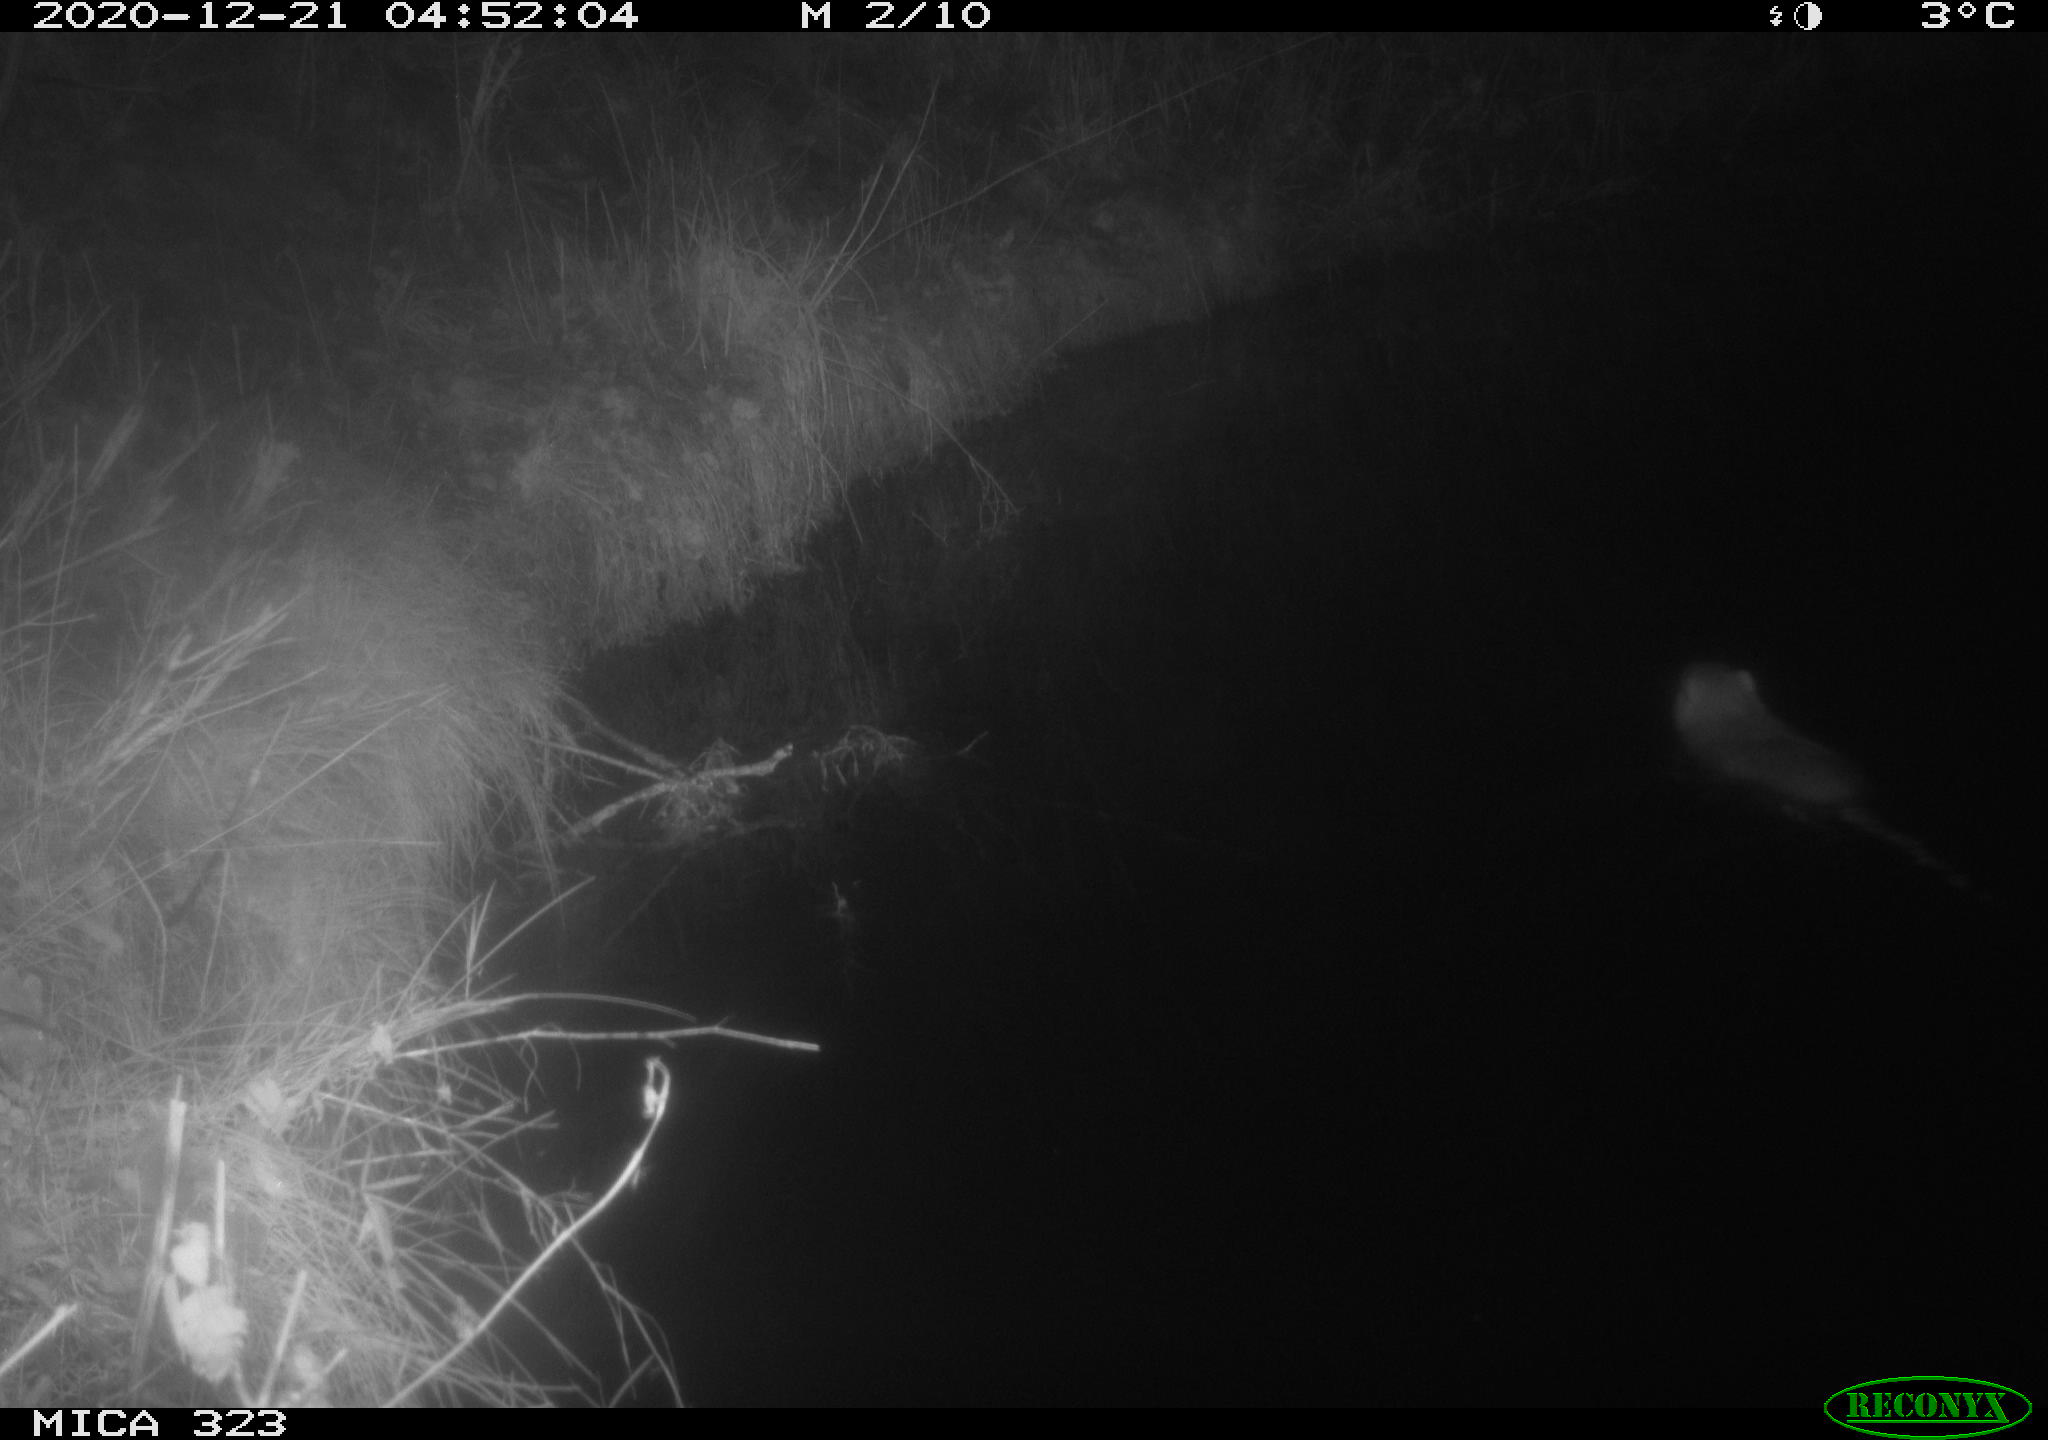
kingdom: Animalia
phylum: Chordata
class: Mammalia
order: Rodentia
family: Myocastoridae
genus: Myocastor
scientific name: Myocastor coypus
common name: Coypu
